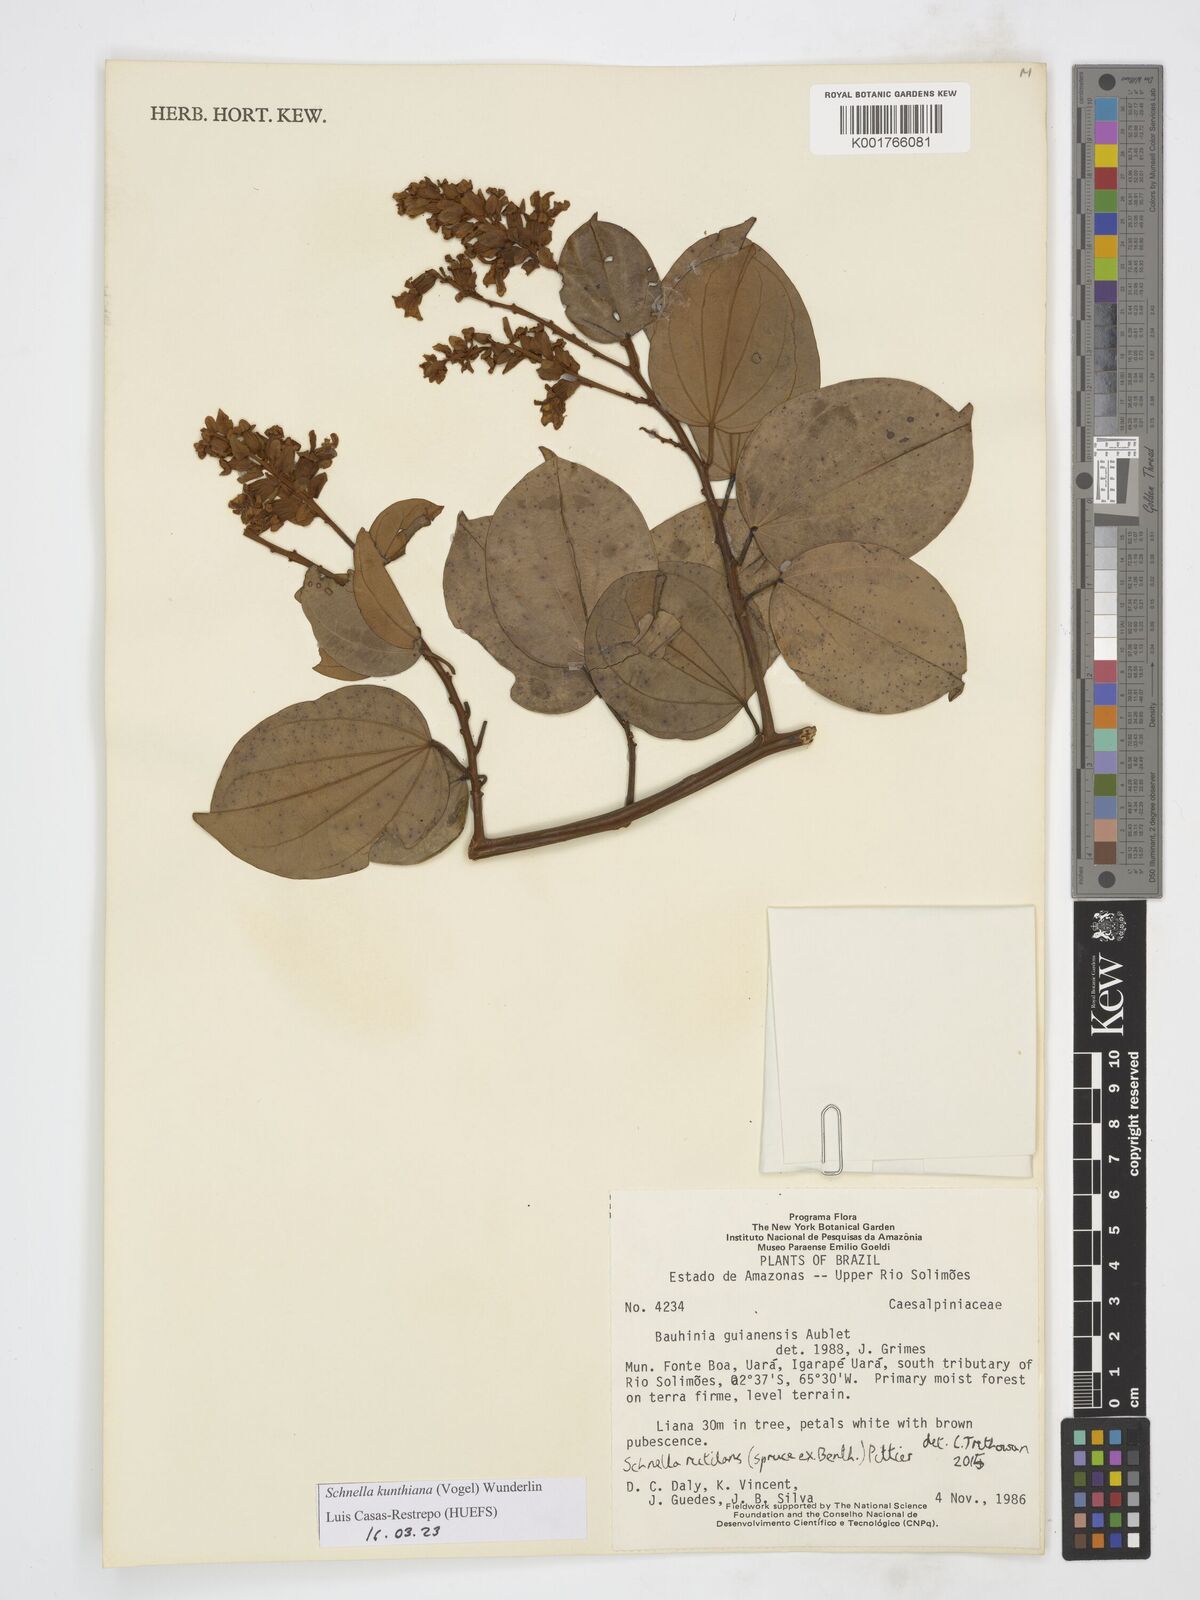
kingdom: Plantae
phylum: Tracheophyta
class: Magnoliopsida
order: Fabales
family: Fabaceae
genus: Schnella
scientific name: Schnella kunthiana
